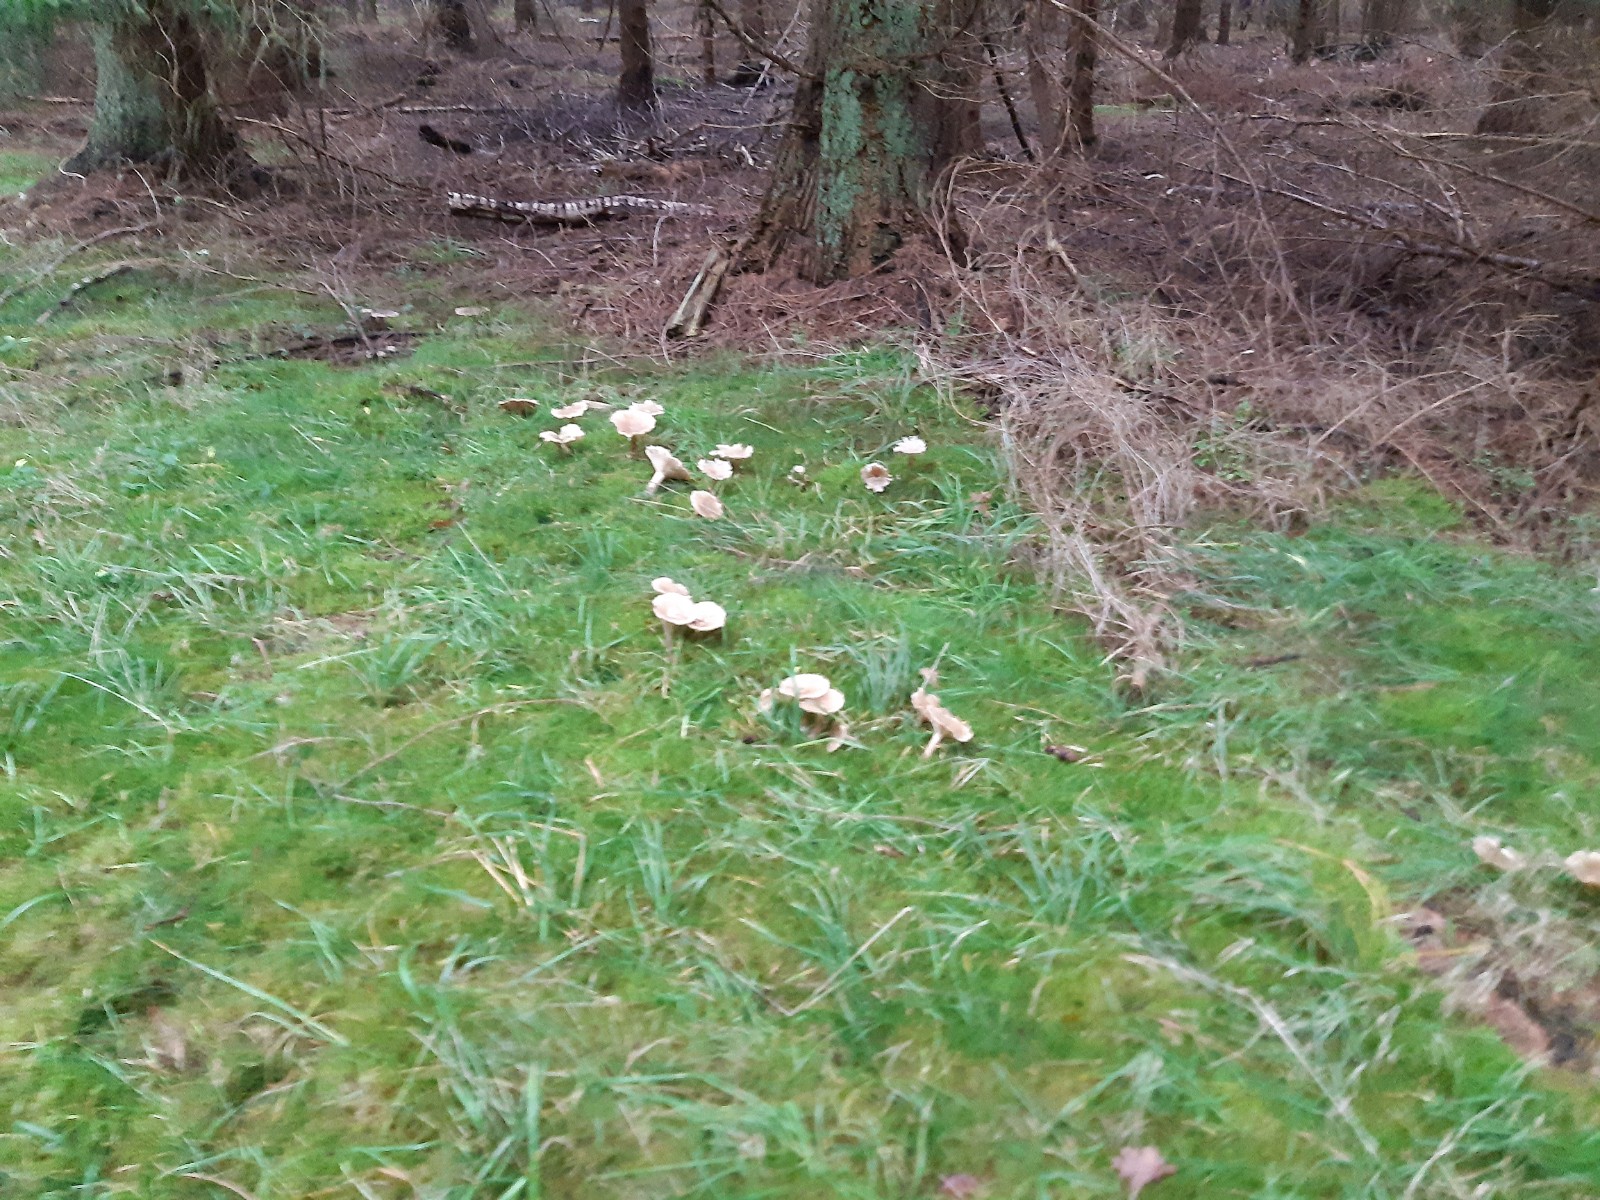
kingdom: Fungi
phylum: Basidiomycota
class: Agaricomycetes
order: Agaricales
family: Tricholomataceae
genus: Clitocybe
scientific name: Clitocybe
